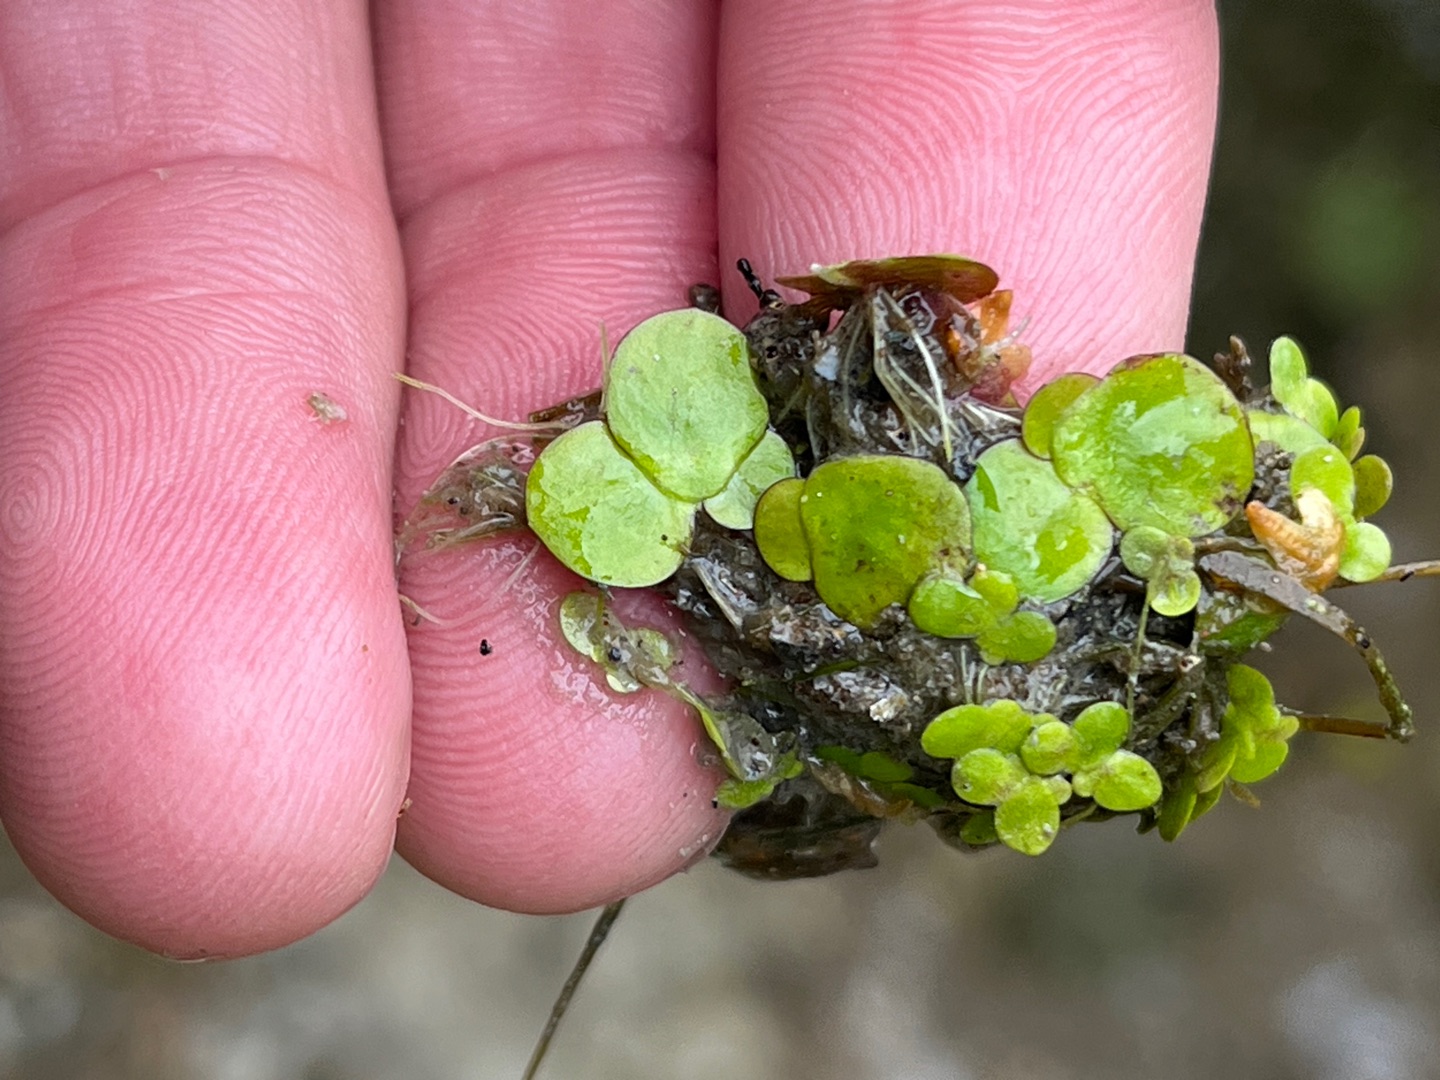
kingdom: Plantae
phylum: Tracheophyta
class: Liliopsida
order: Alismatales
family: Araceae
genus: Spirodela
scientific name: Spirodela polyrhiza
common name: Stor andemad
